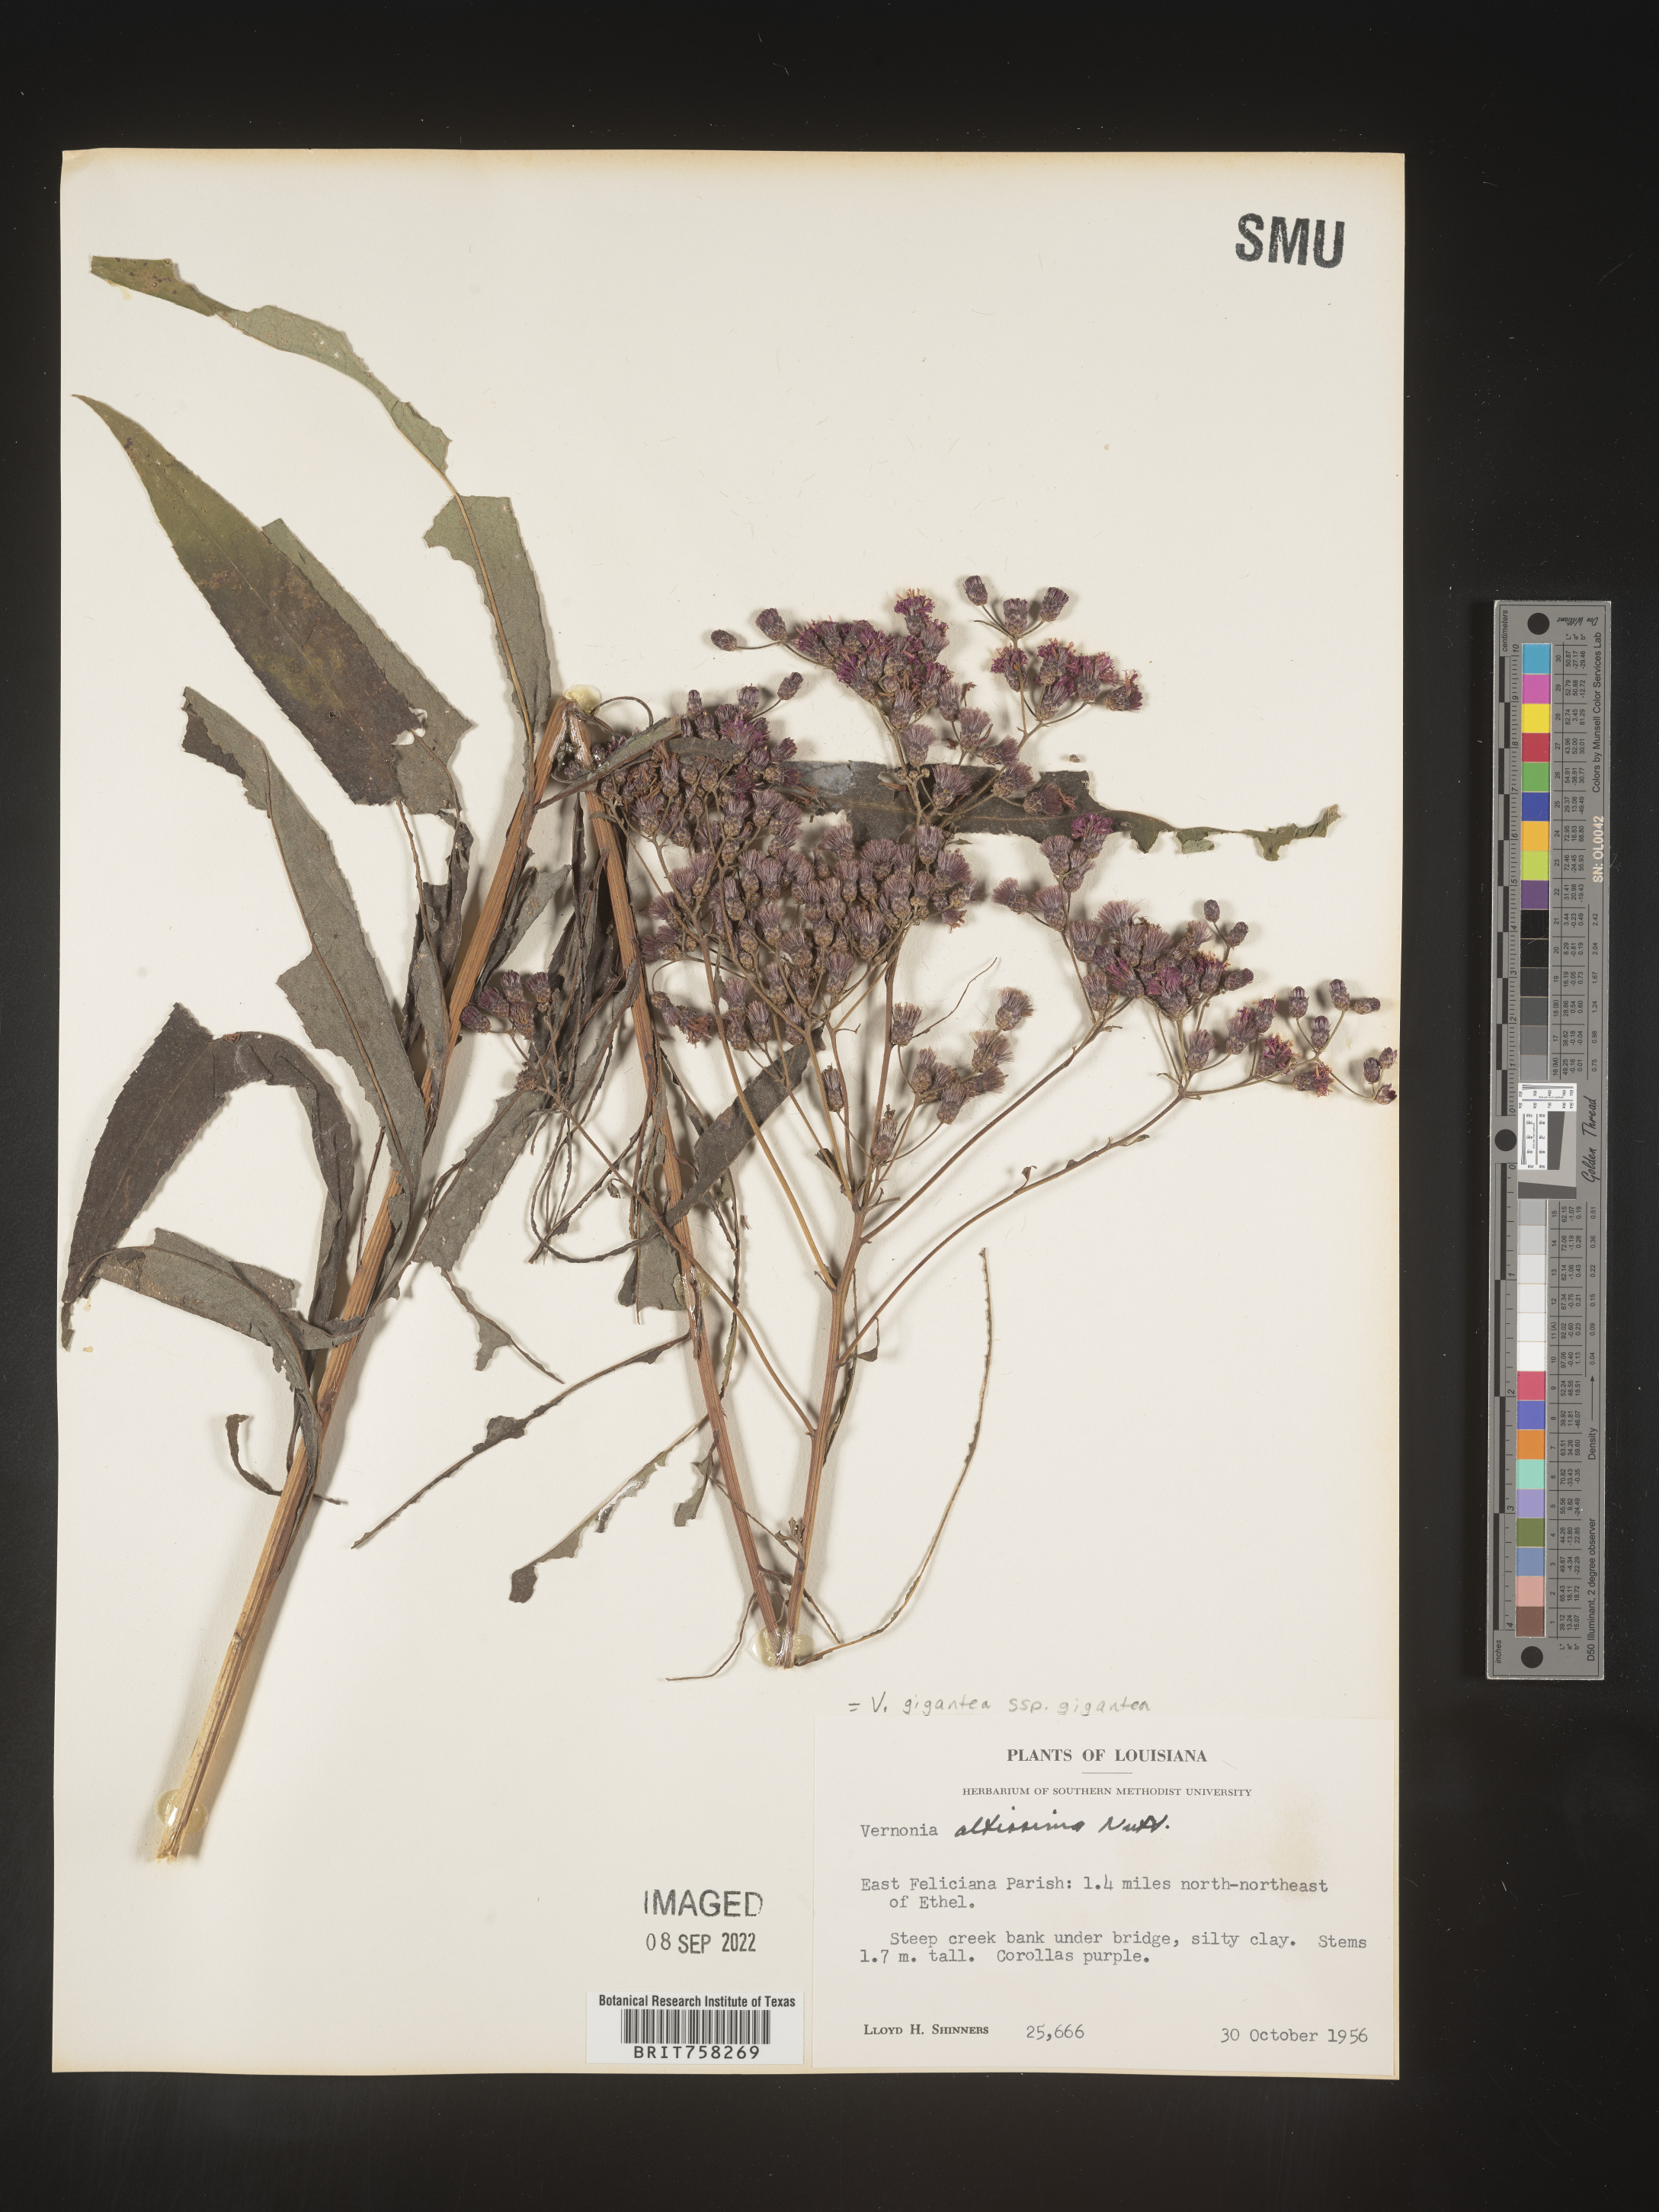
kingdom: Plantae
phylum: Tracheophyta
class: Magnoliopsida
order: Asterales
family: Asteraceae
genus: Vernonia
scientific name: Vernonia gigantea
